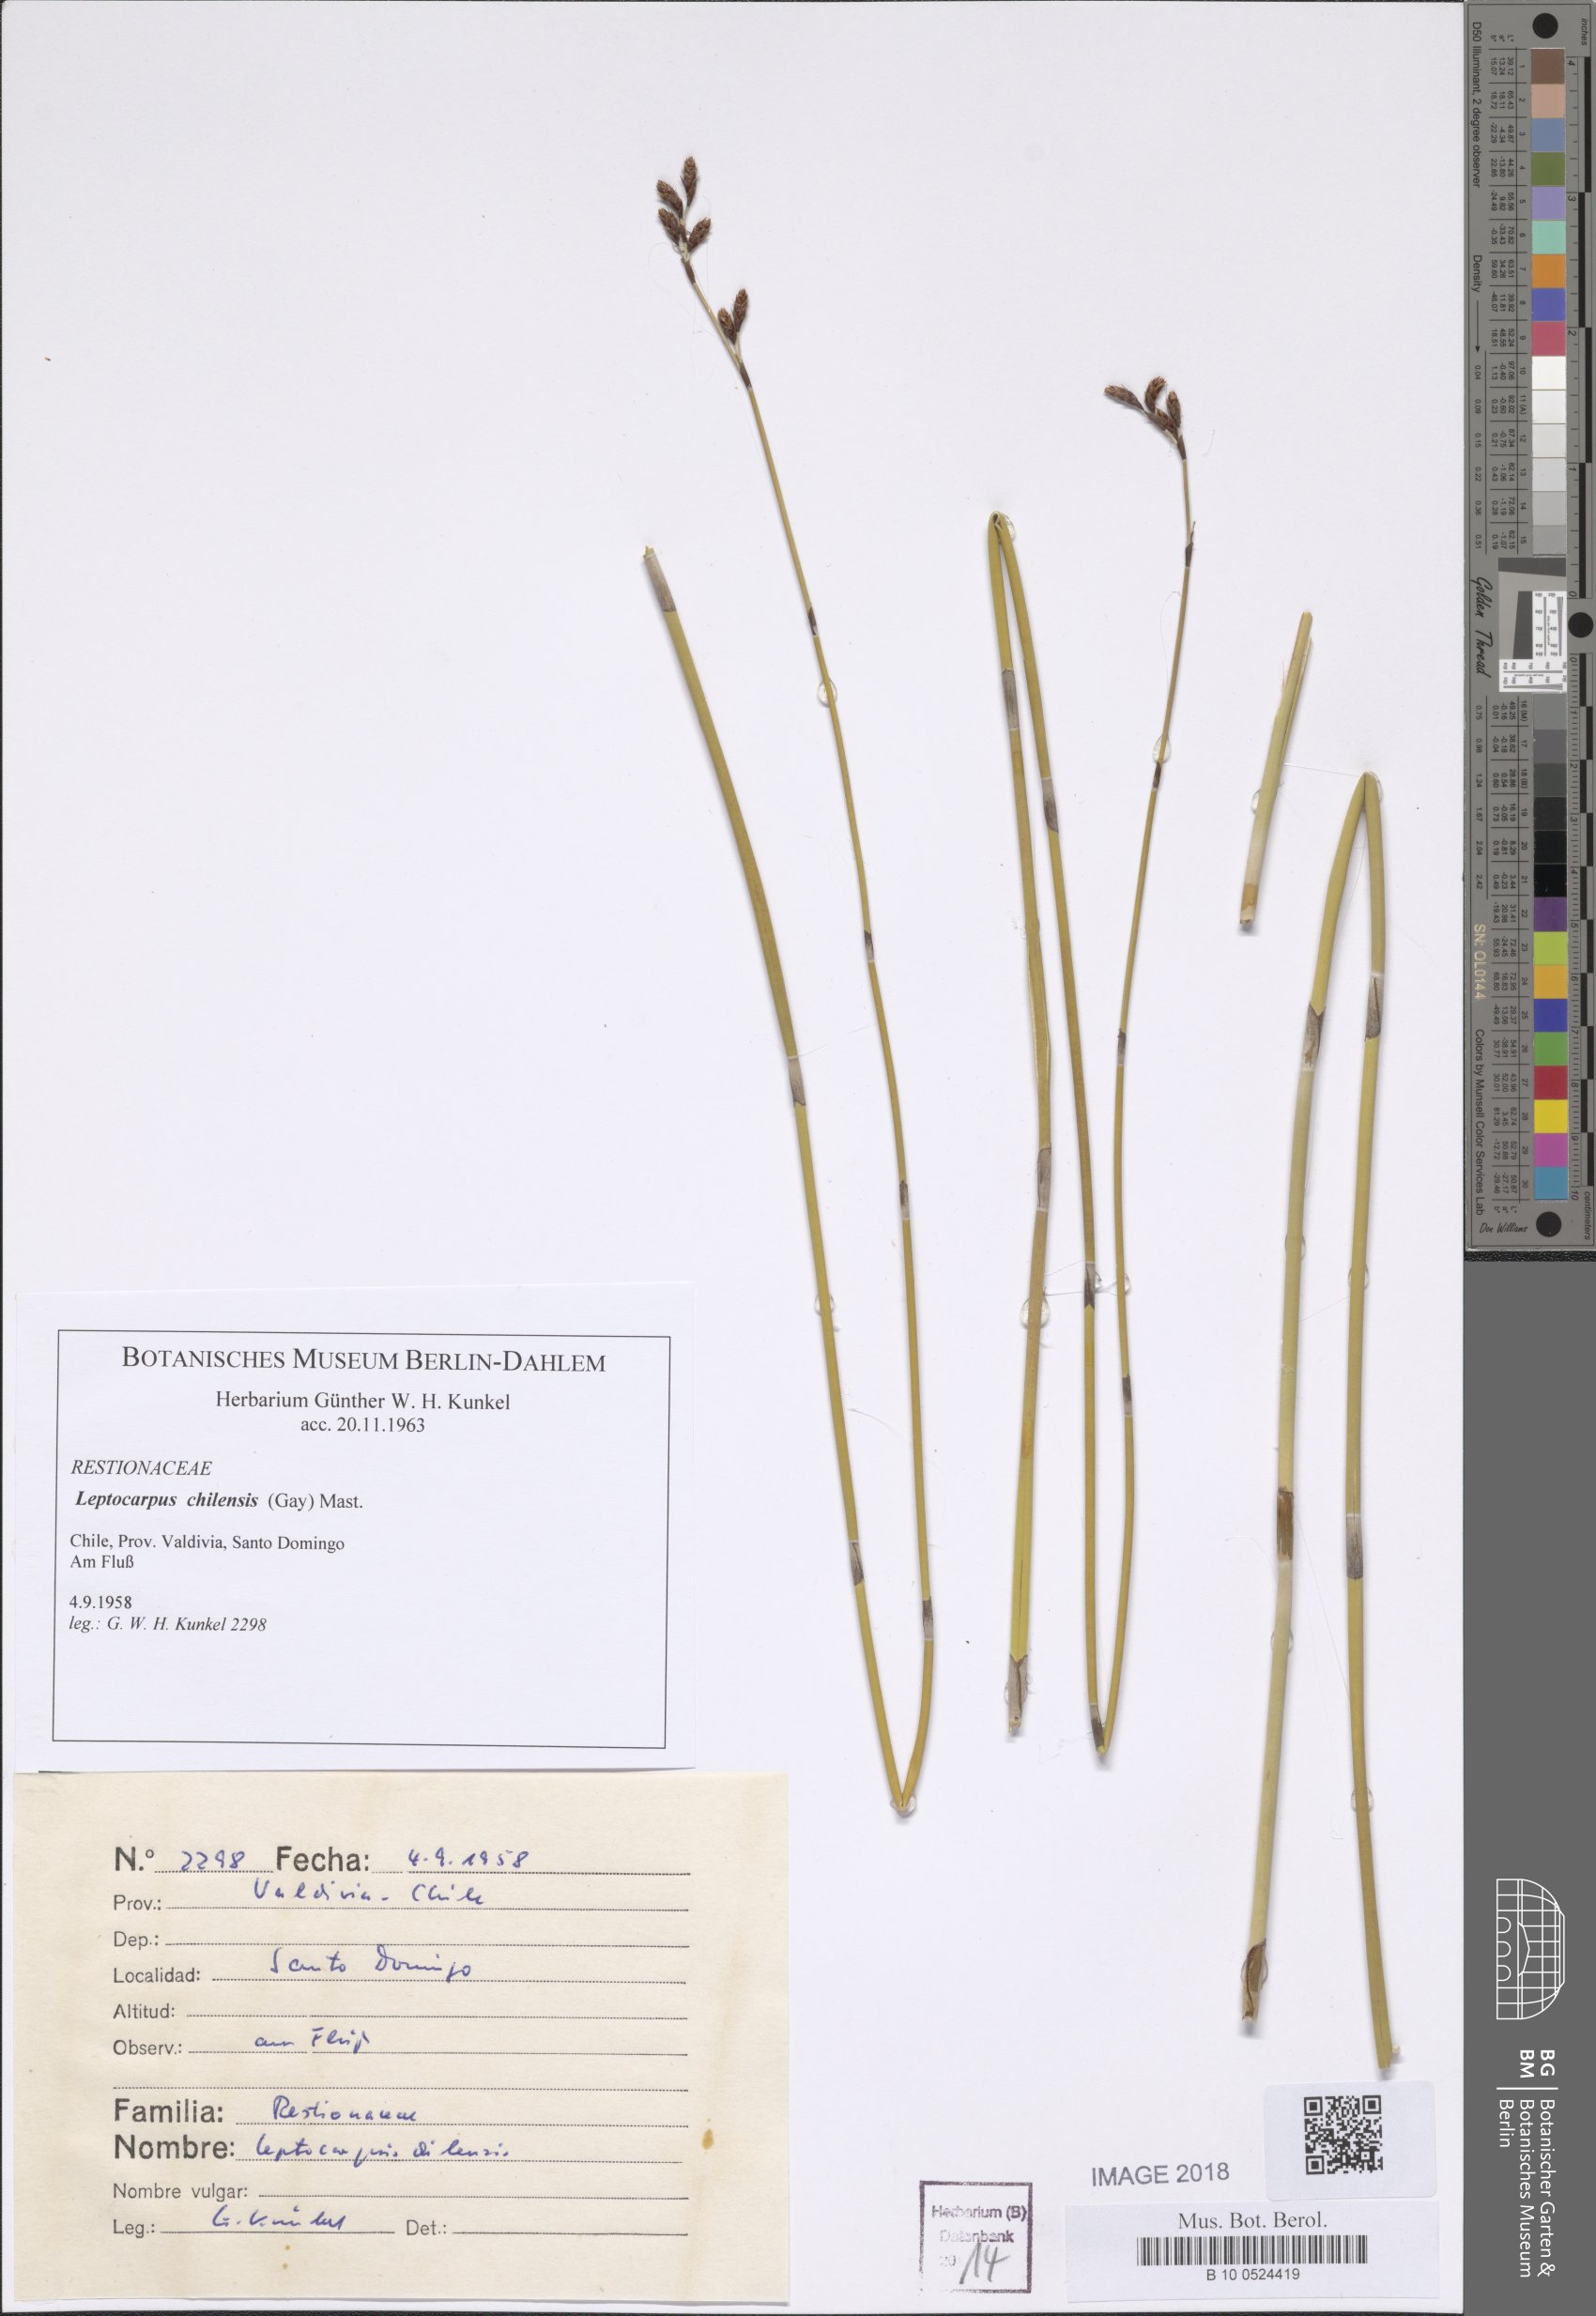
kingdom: Plantae
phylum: Tracheophyta
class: Liliopsida
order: Poales
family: Restionaceae
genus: Apodasmia
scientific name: Apodasmia chilensis
